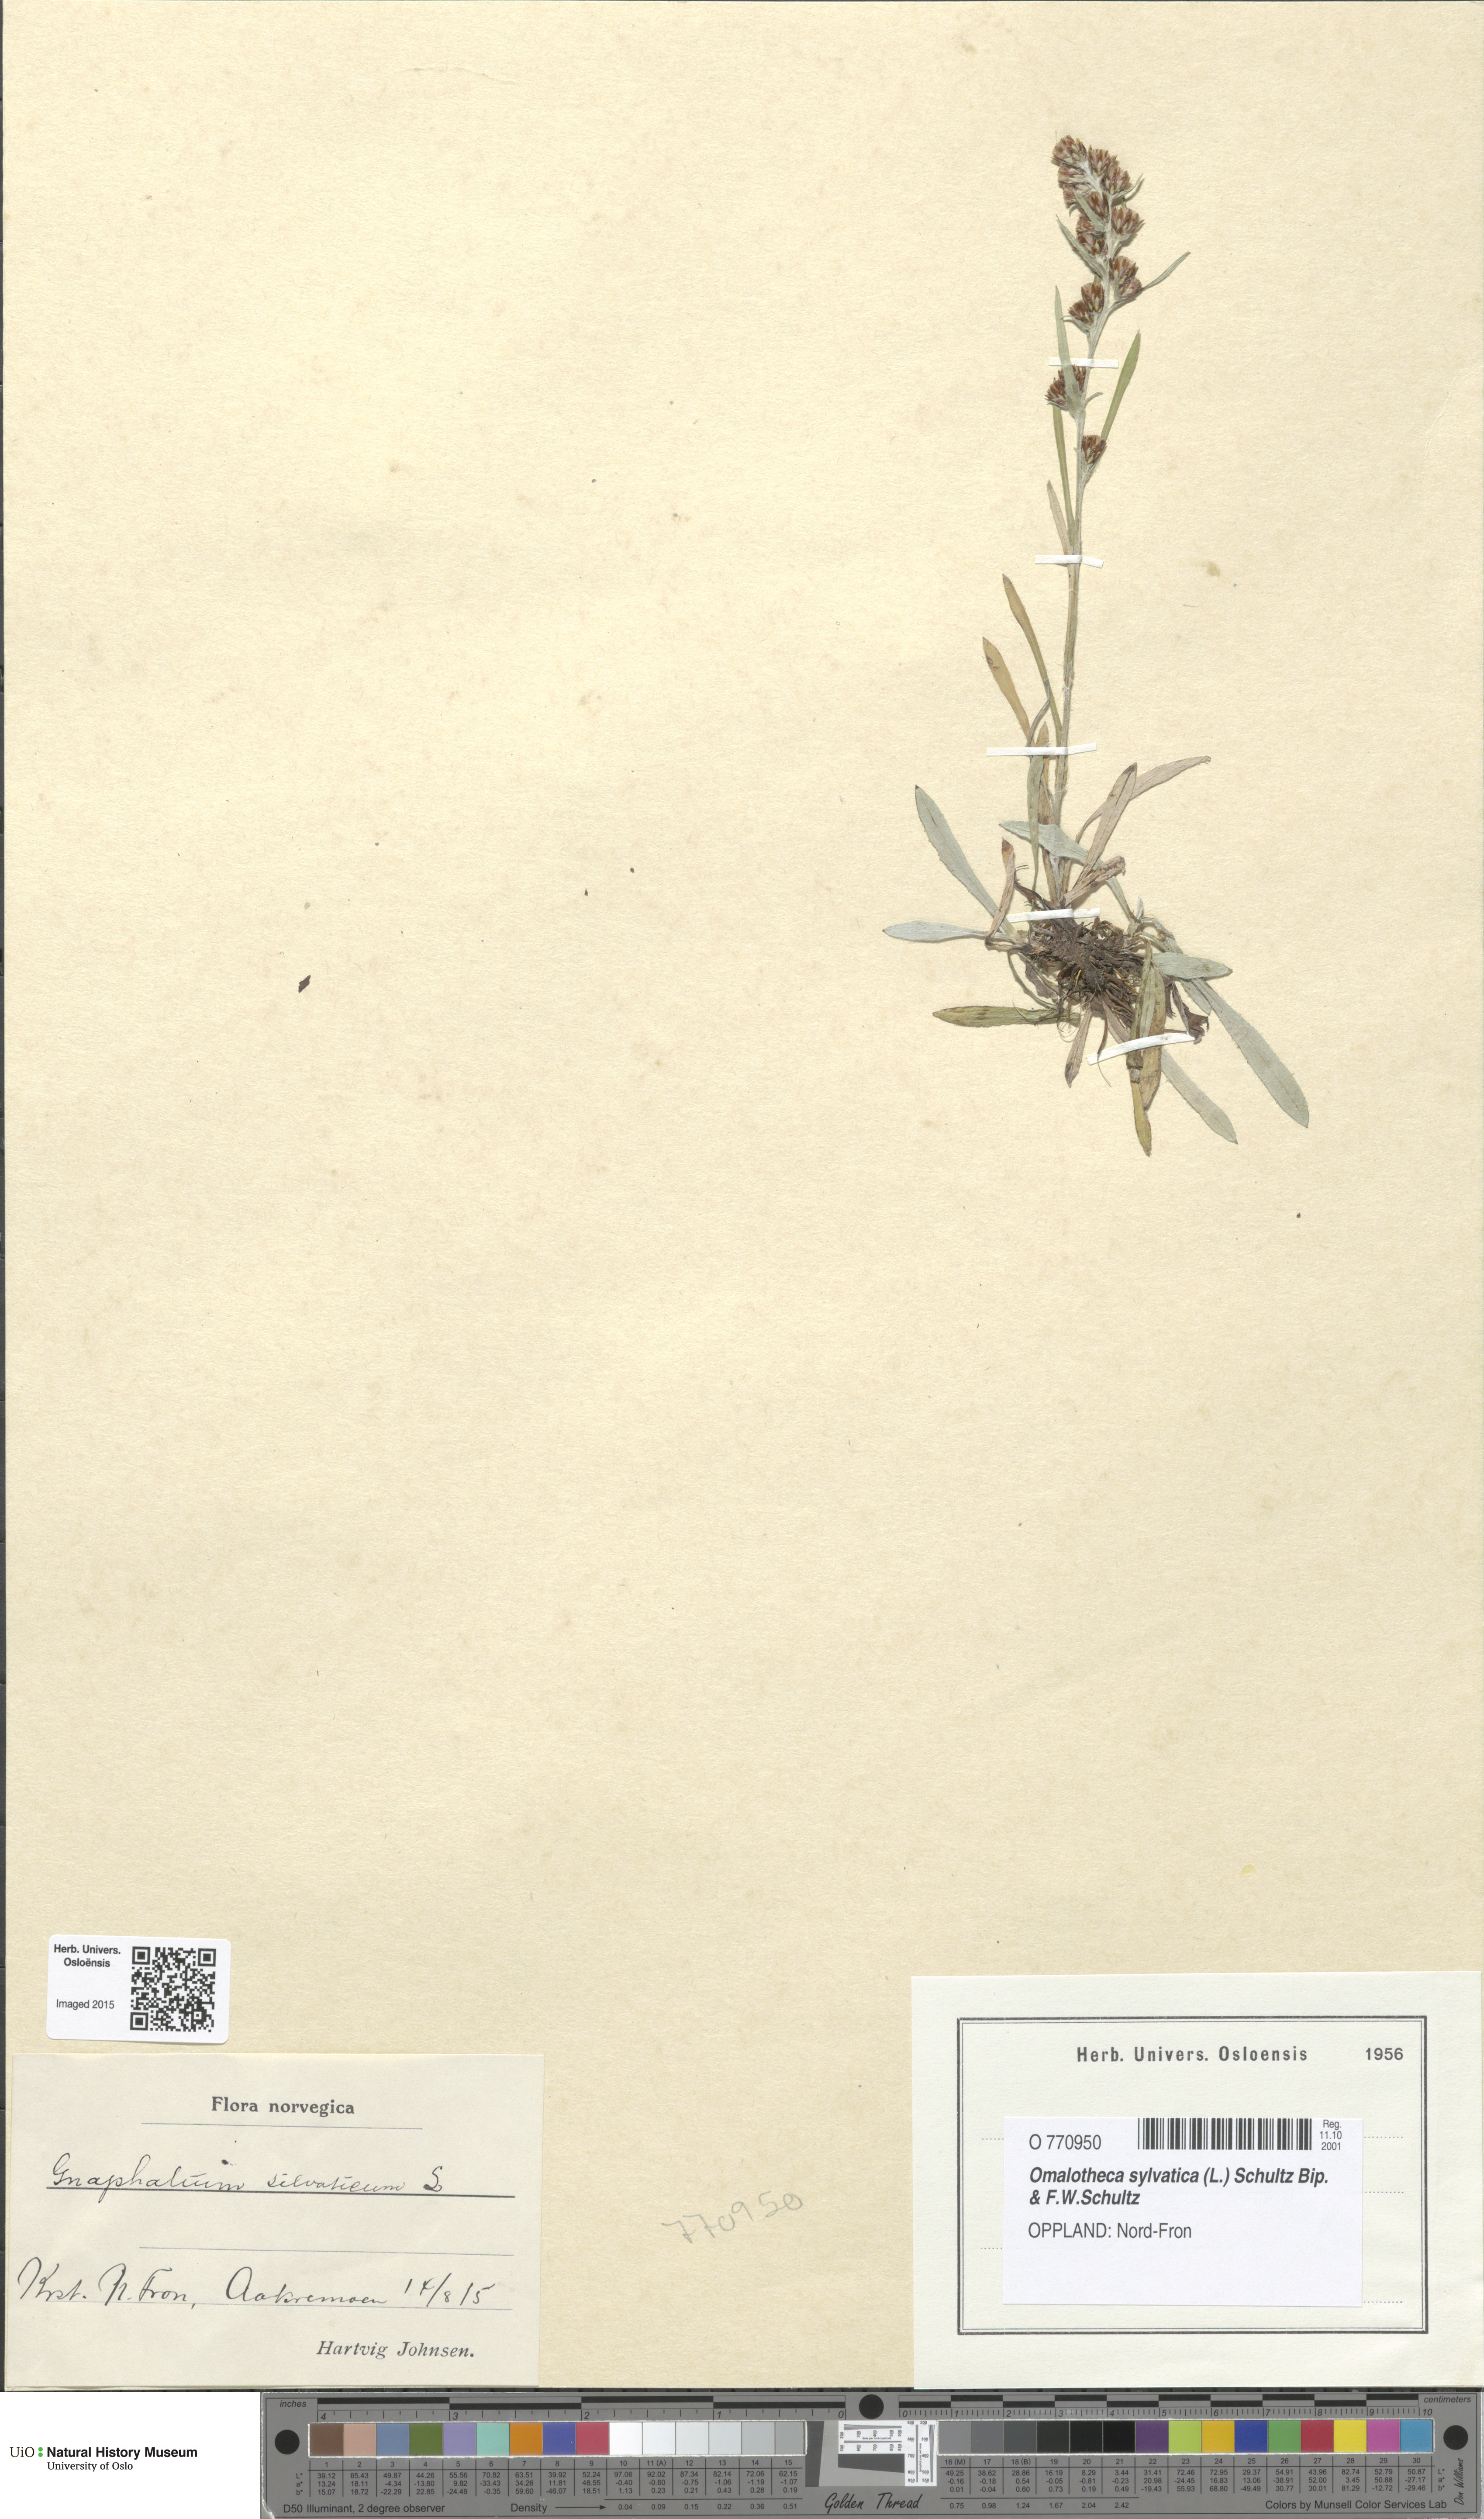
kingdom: Plantae
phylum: Tracheophyta
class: Magnoliopsida
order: Asterales
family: Asteraceae
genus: Omalotheca
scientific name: Omalotheca sylvatica
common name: Heath cudweed
